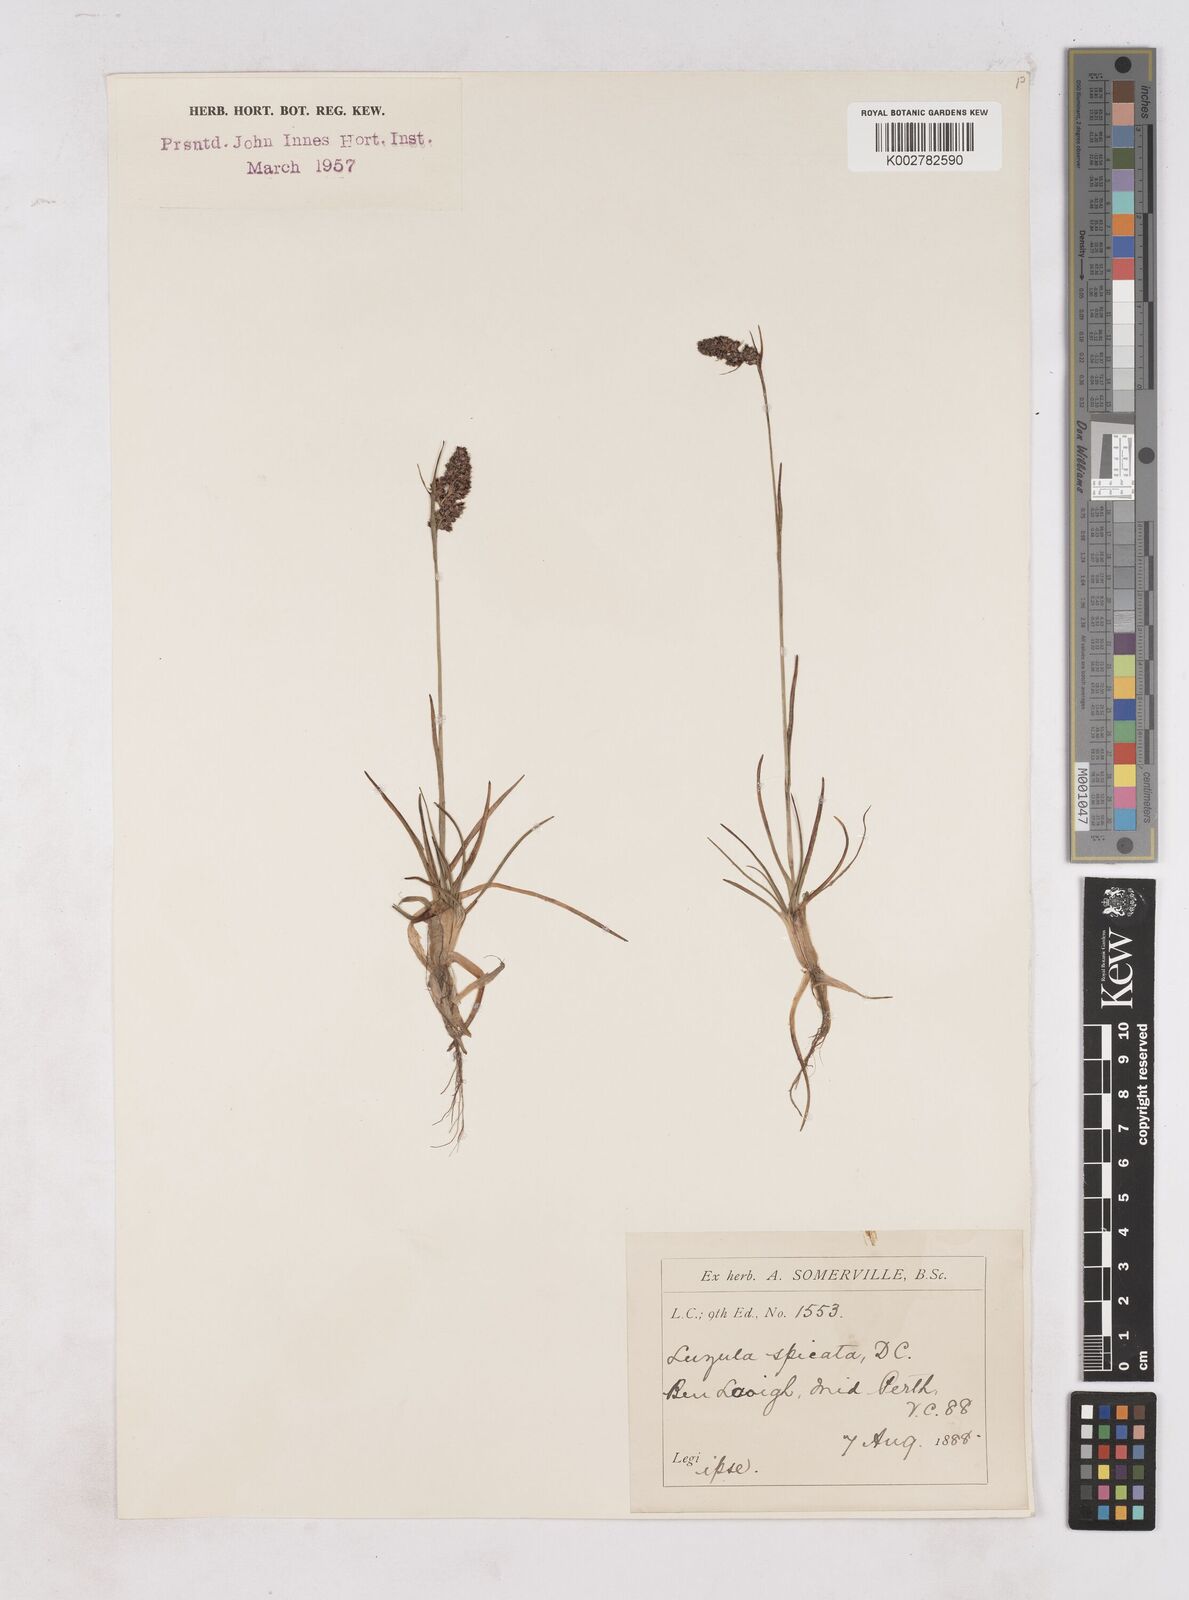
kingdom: Plantae
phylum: Tracheophyta
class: Liliopsida
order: Poales
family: Juncaceae
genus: Luzula
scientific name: Luzula spicata
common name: Spiked wood-rush
